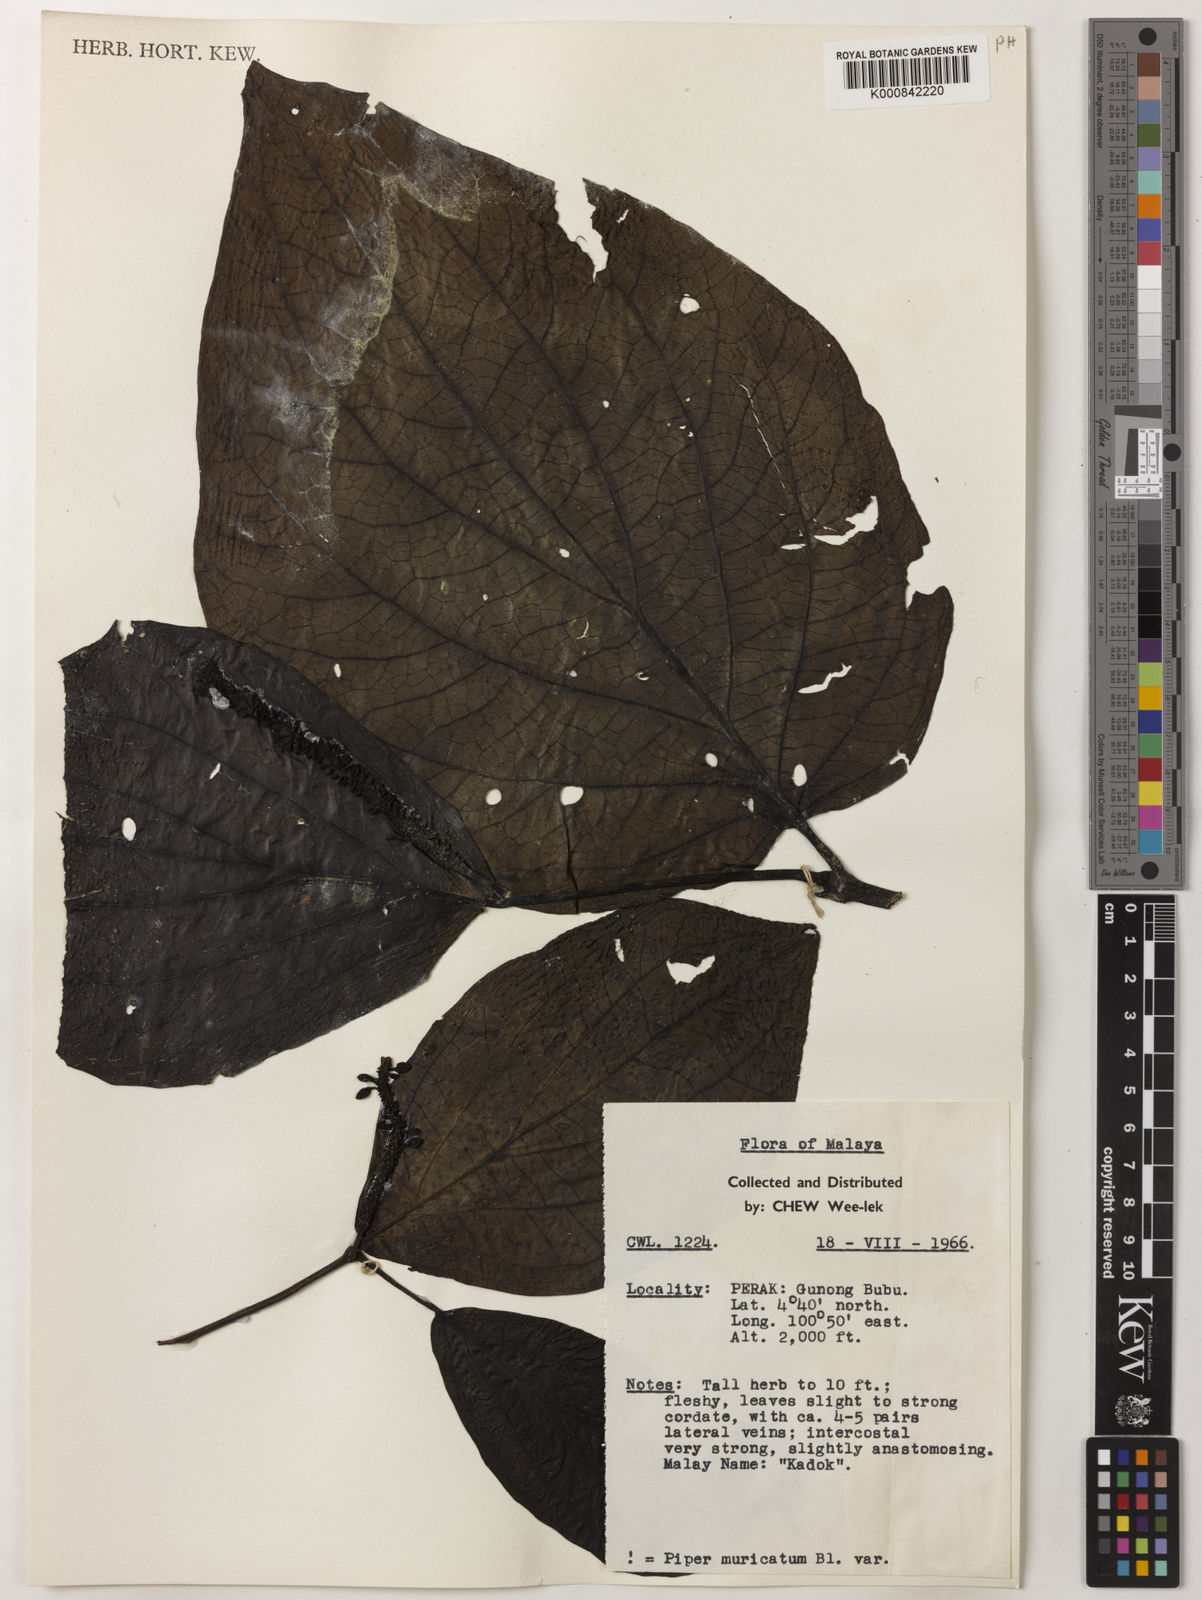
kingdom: Plantae
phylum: Tracheophyta
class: Magnoliopsida
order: Piperales
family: Piperaceae
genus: Piper
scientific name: Piper muricatum
